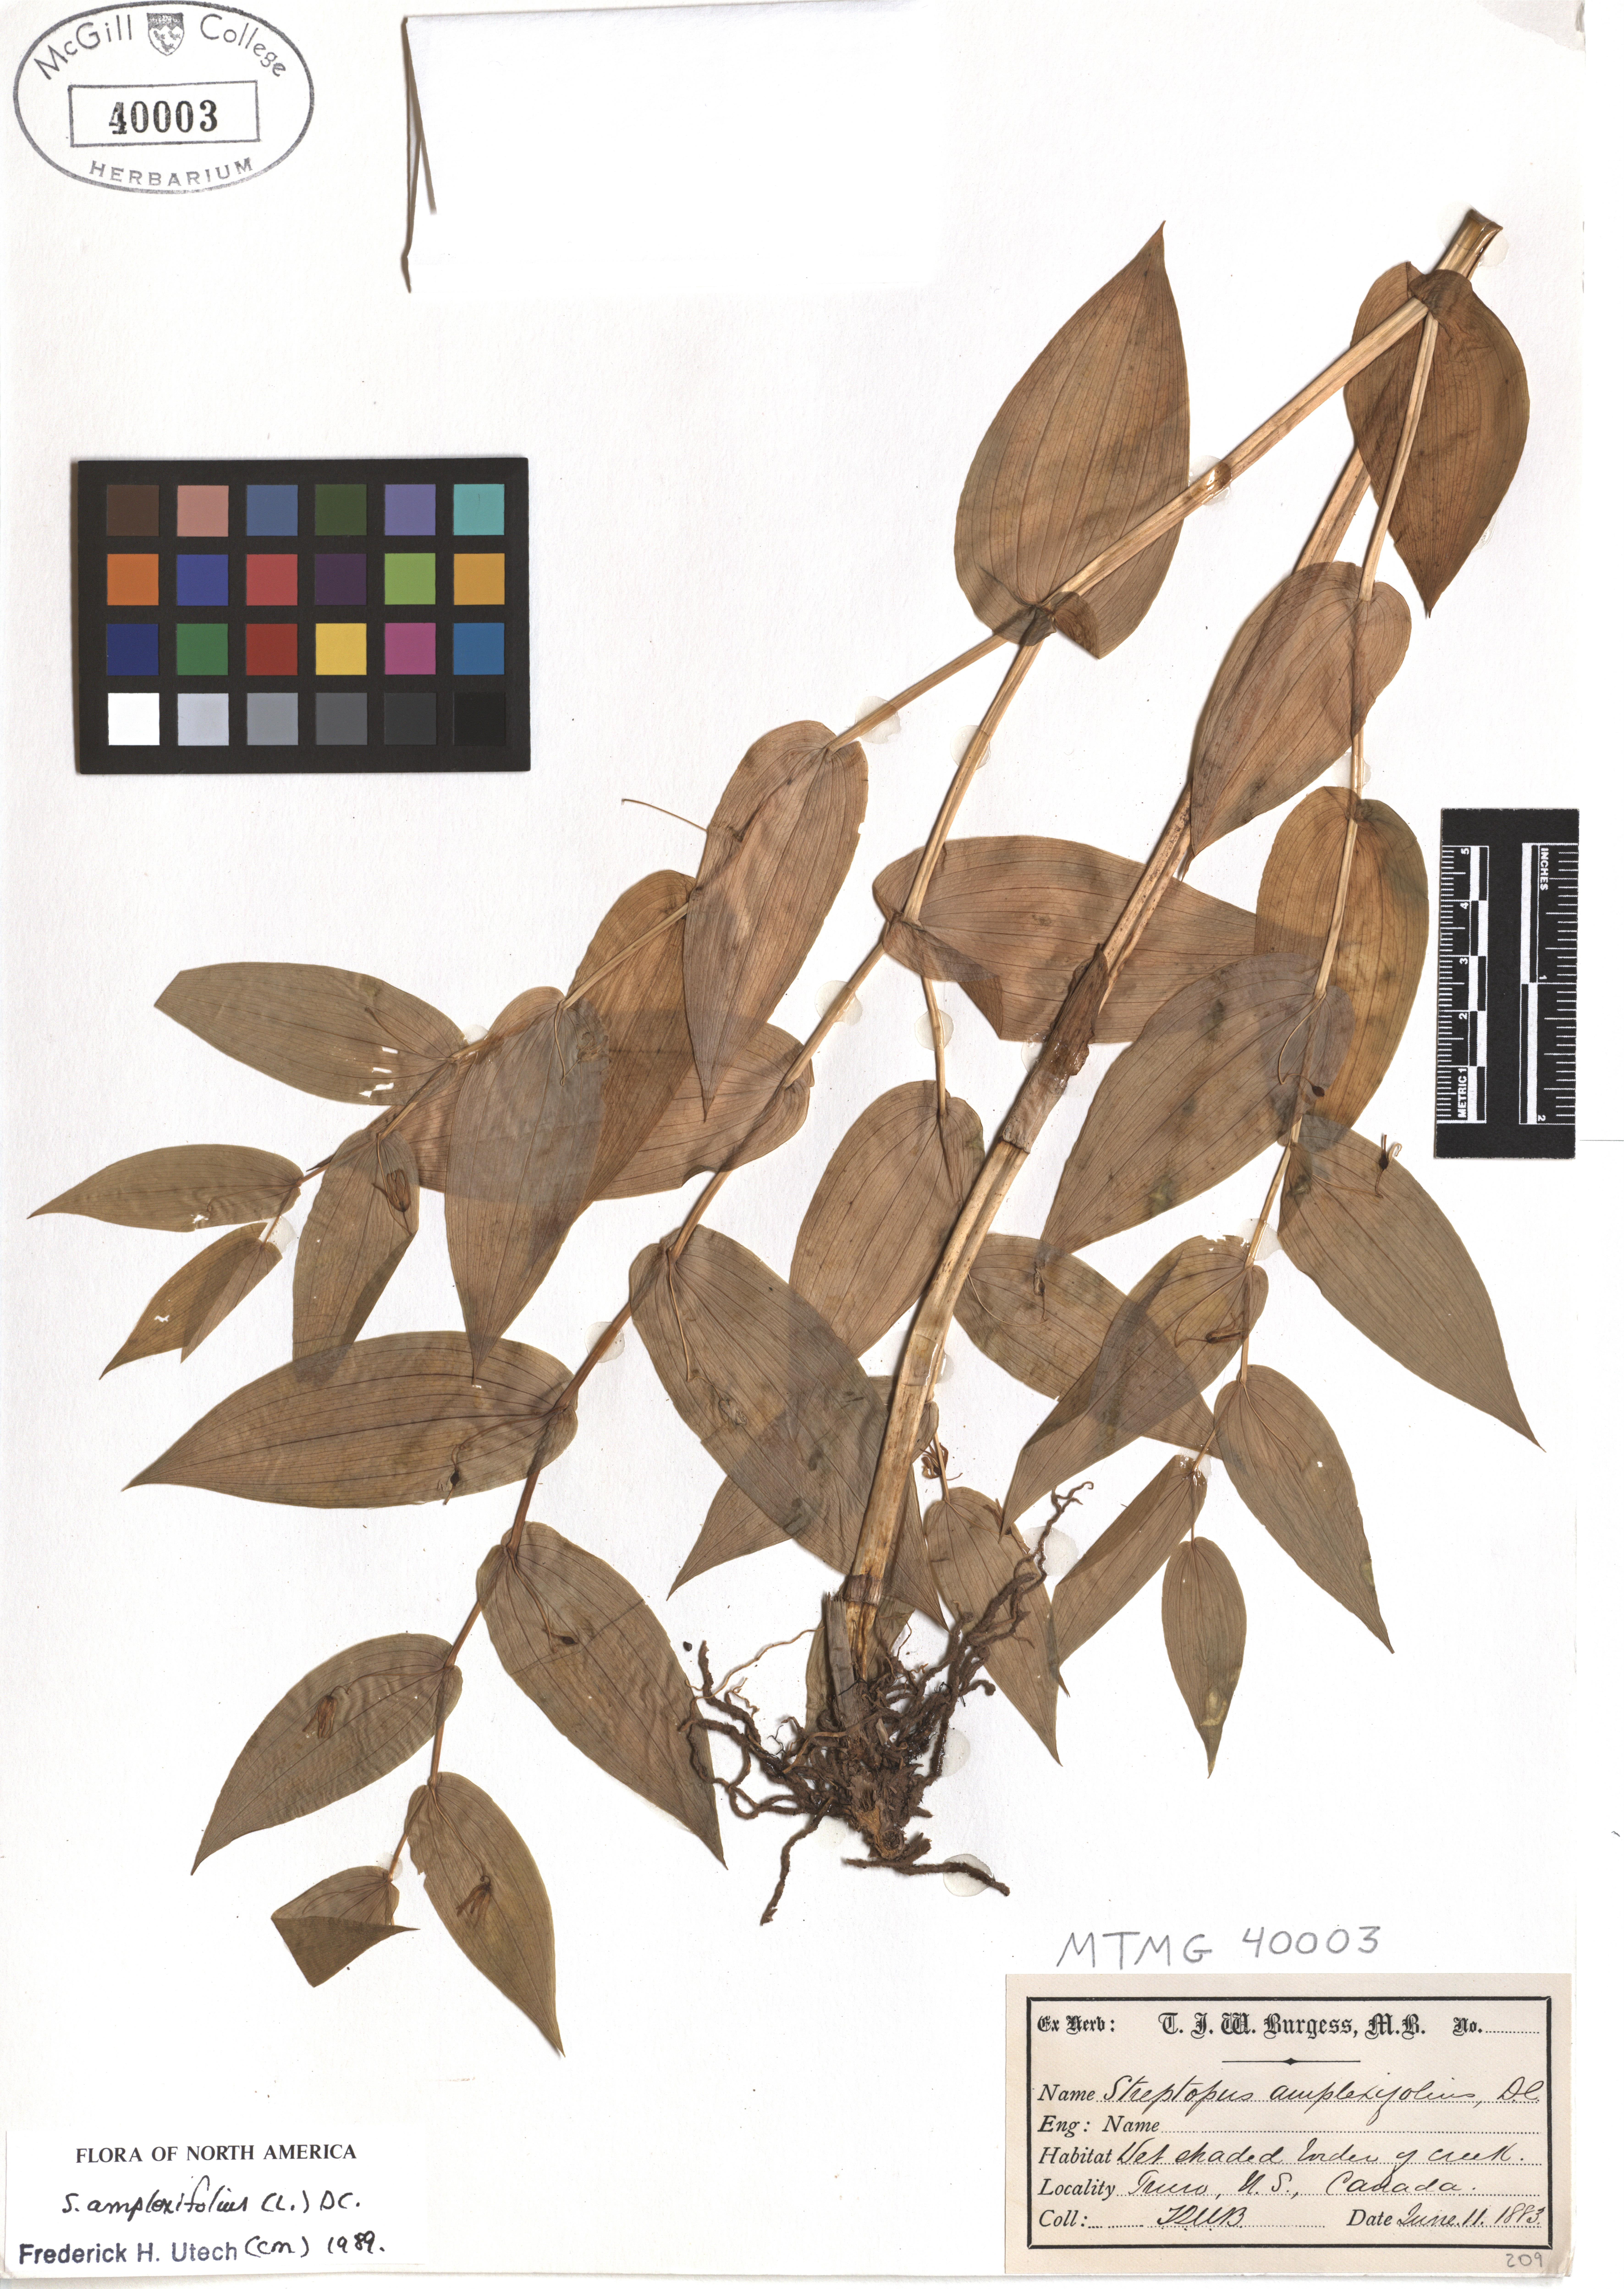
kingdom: Plantae
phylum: Tracheophyta
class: Liliopsida
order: Liliales
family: Liliaceae
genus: Streptopus
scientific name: Streptopus amplexifolius
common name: Clasp twisted stalk
